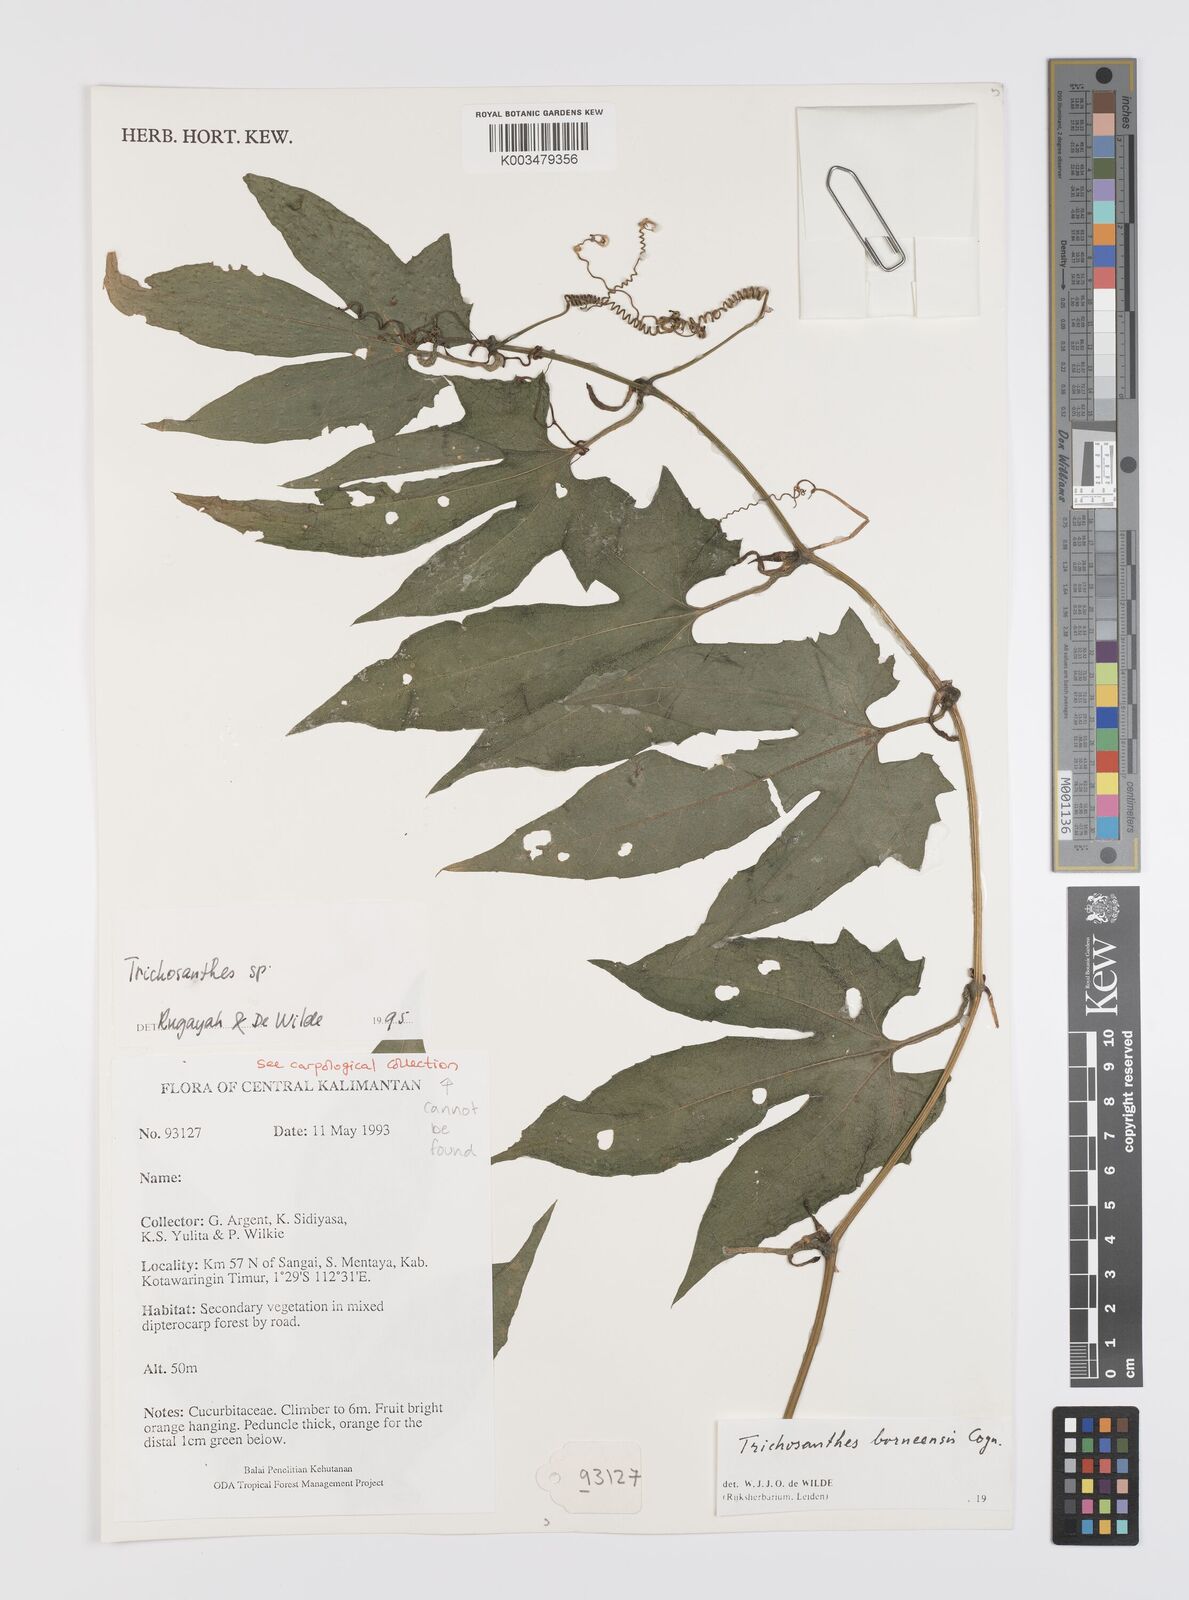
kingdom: Plantae
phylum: Tracheophyta
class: Magnoliopsida
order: Cucurbitales
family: Cucurbitaceae
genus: Trichosanthes
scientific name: Trichosanthes borneensis
